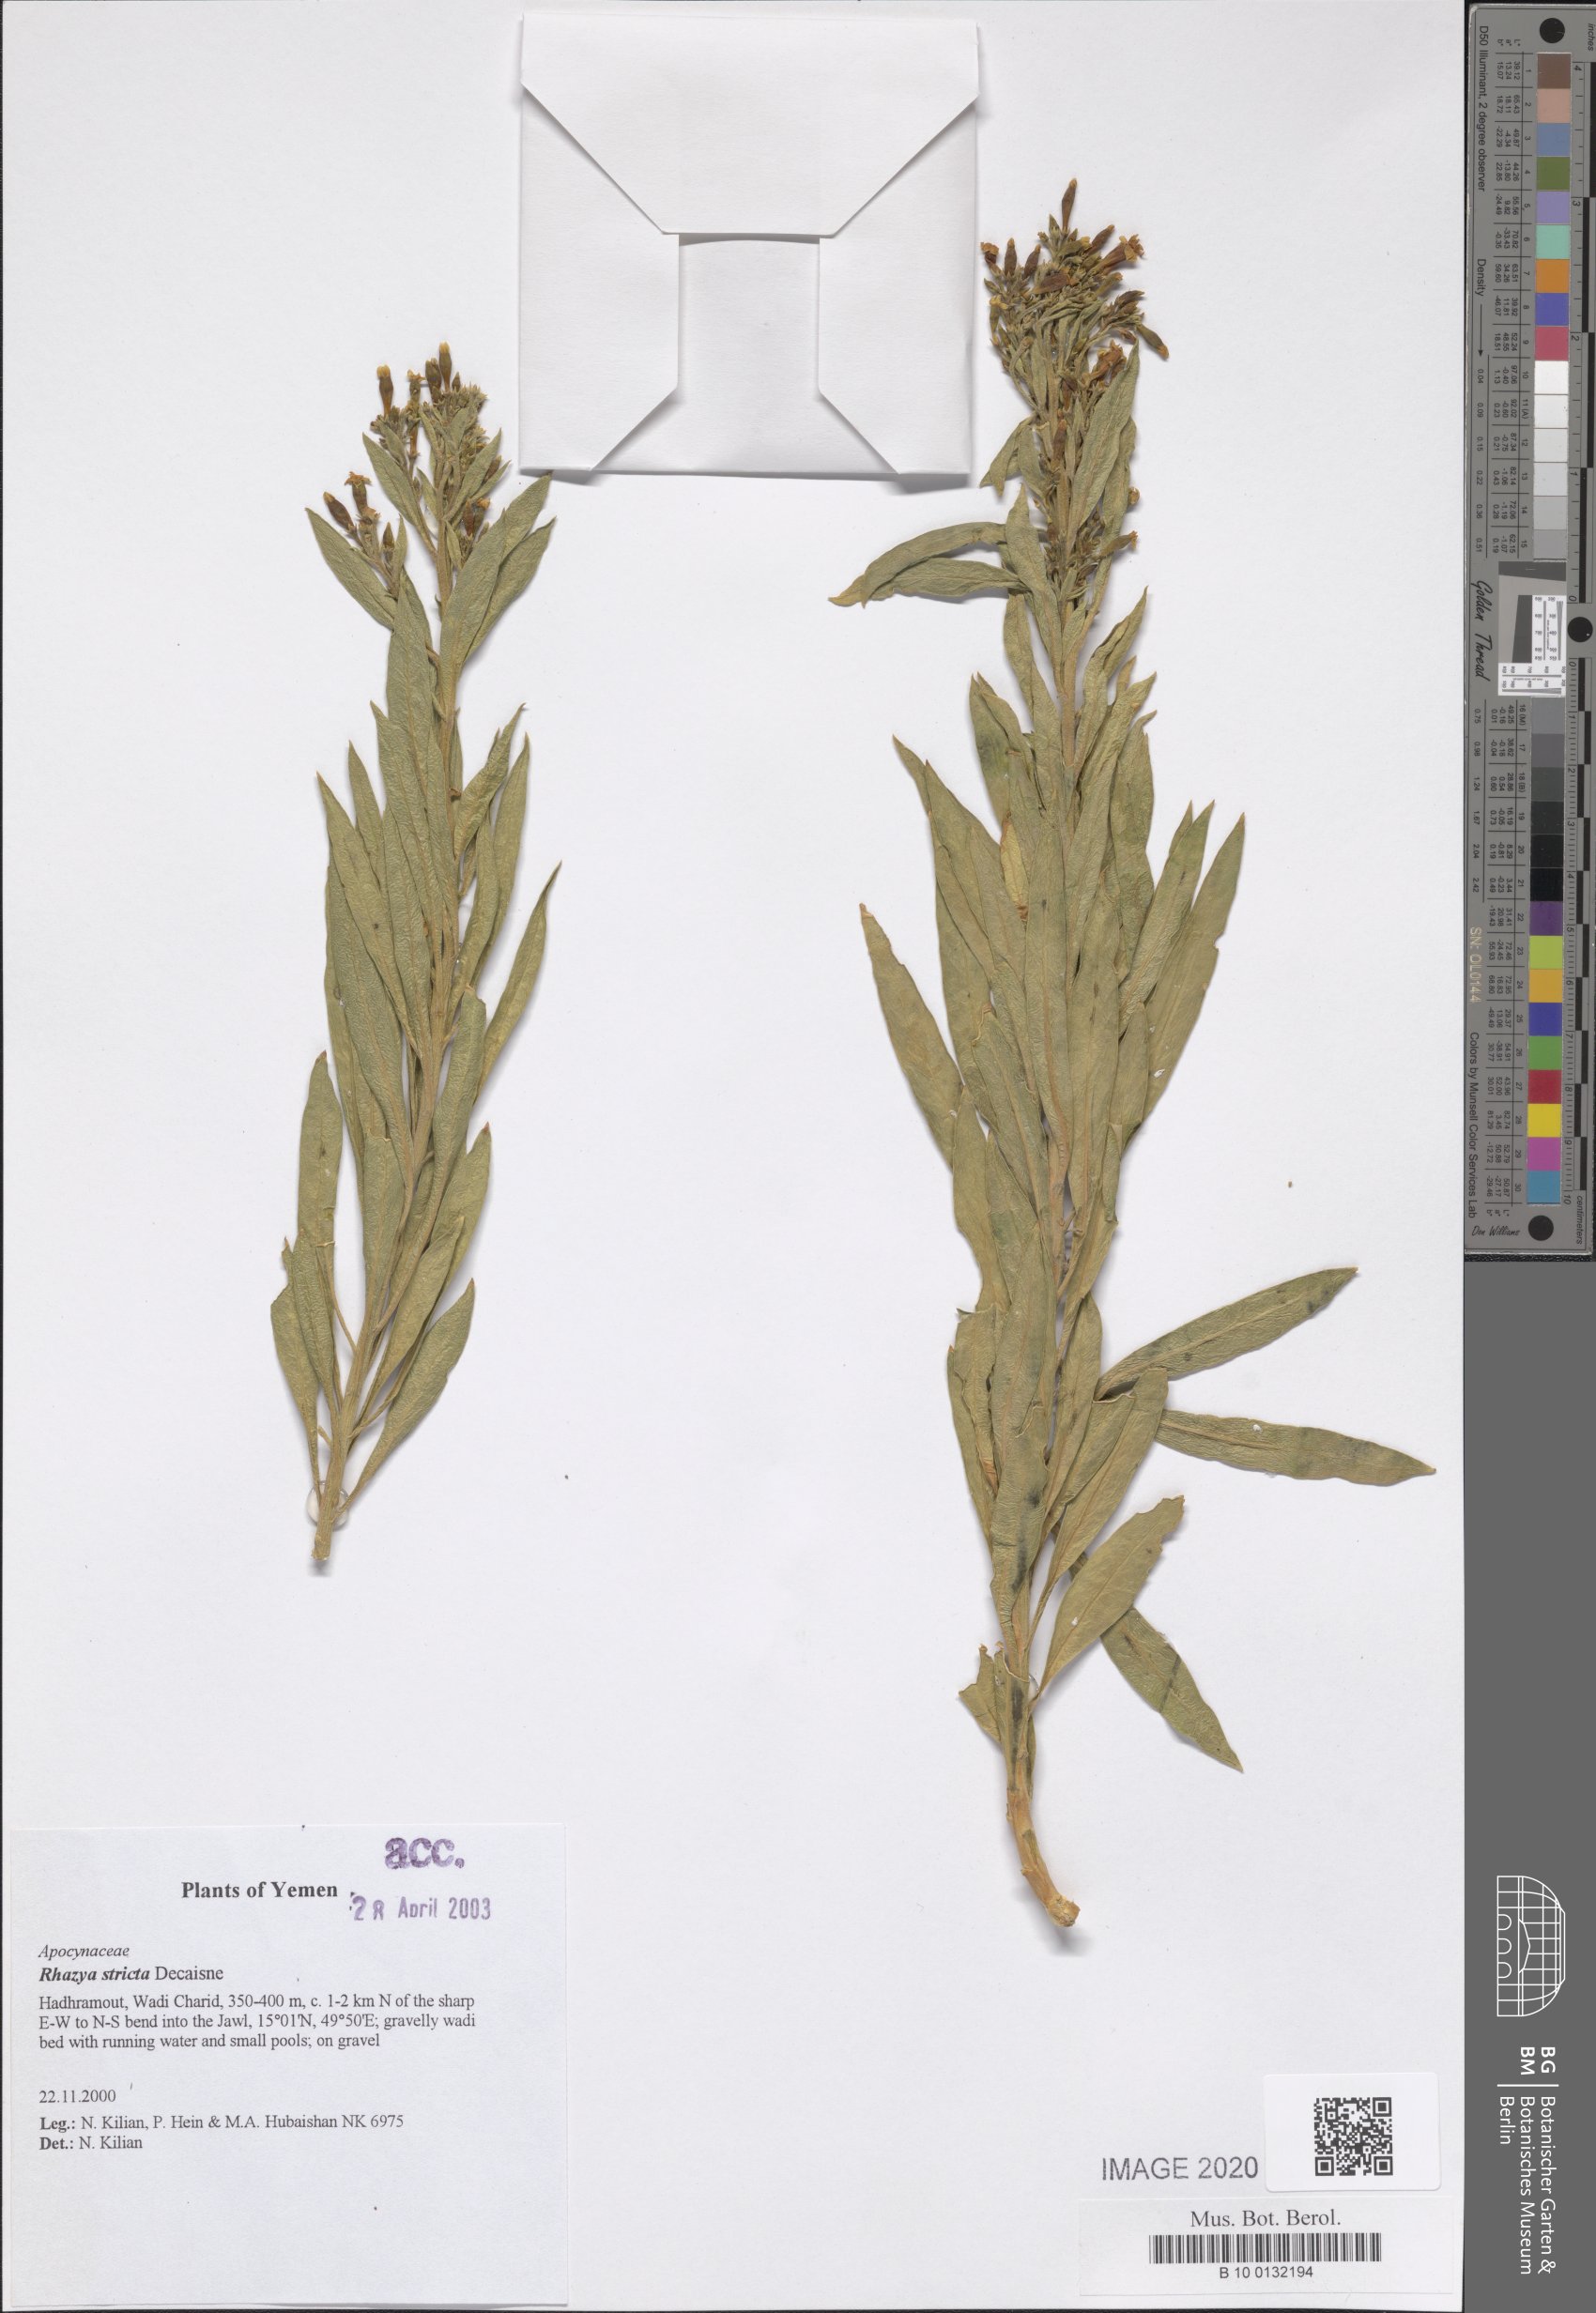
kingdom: Plantae
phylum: Tracheophyta
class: Magnoliopsida
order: Gentianales
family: Apocynaceae
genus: Rhazya
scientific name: Rhazya stricta
